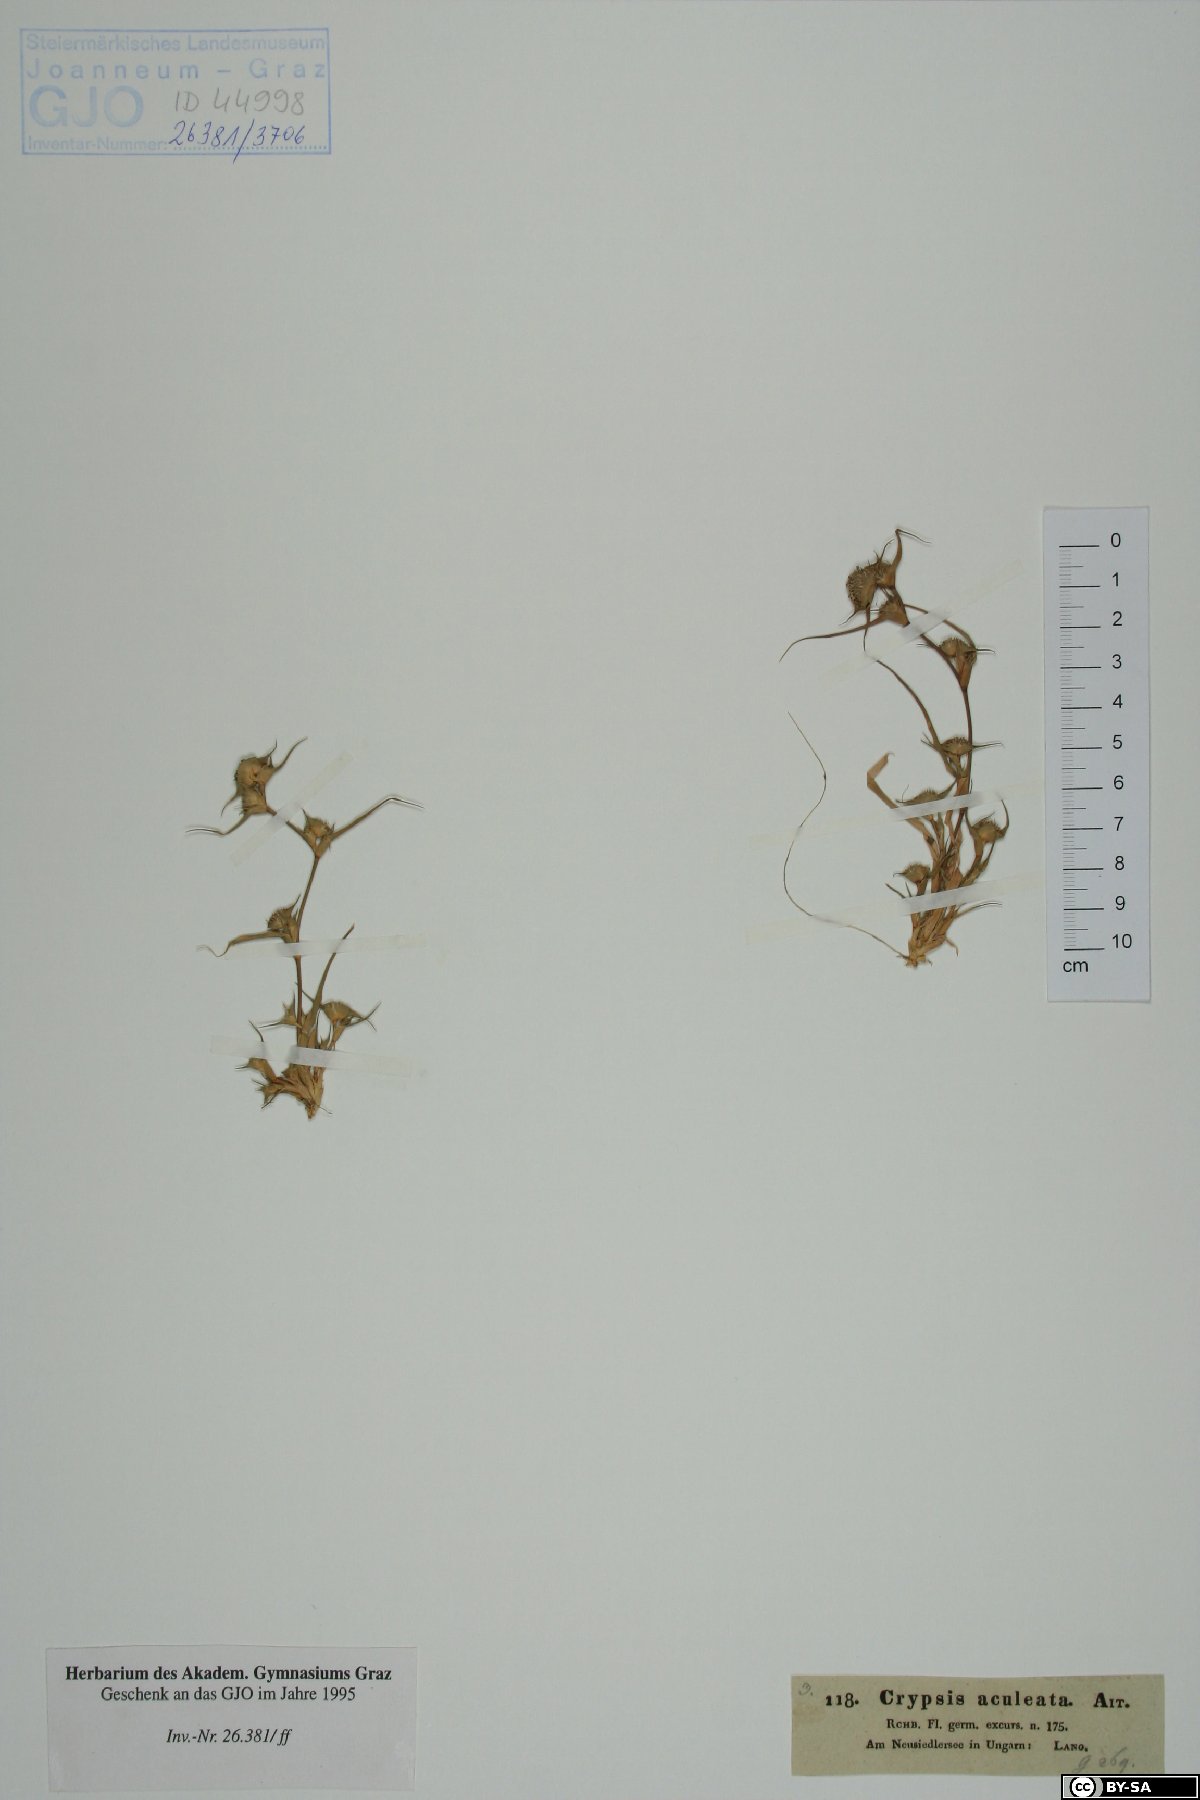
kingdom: Plantae
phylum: Tracheophyta
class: Liliopsida
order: Poales
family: Poaceae
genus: Sporobolus
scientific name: Sporobolus aculeatus
